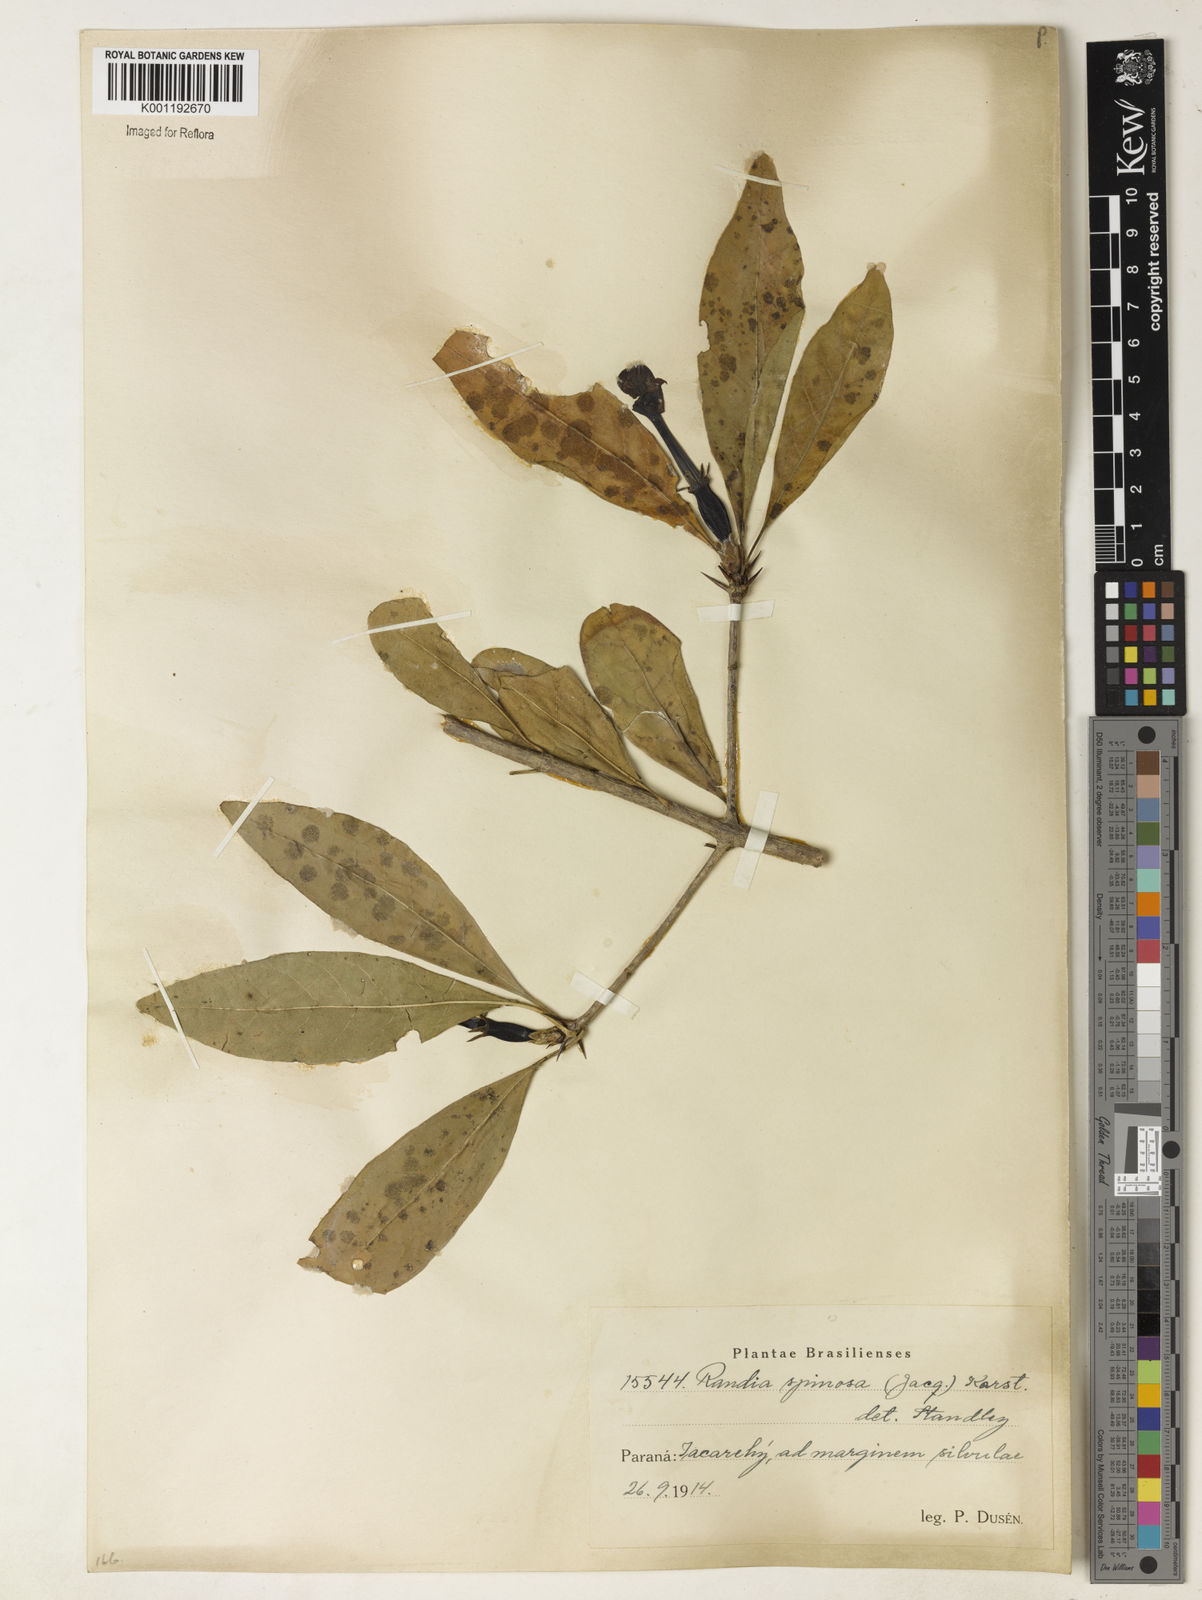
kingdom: Plantae
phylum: Tracheophyta
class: Magnoliopsida
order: Gentianales
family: Rubiaceae
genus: Randia
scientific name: Randia armata
